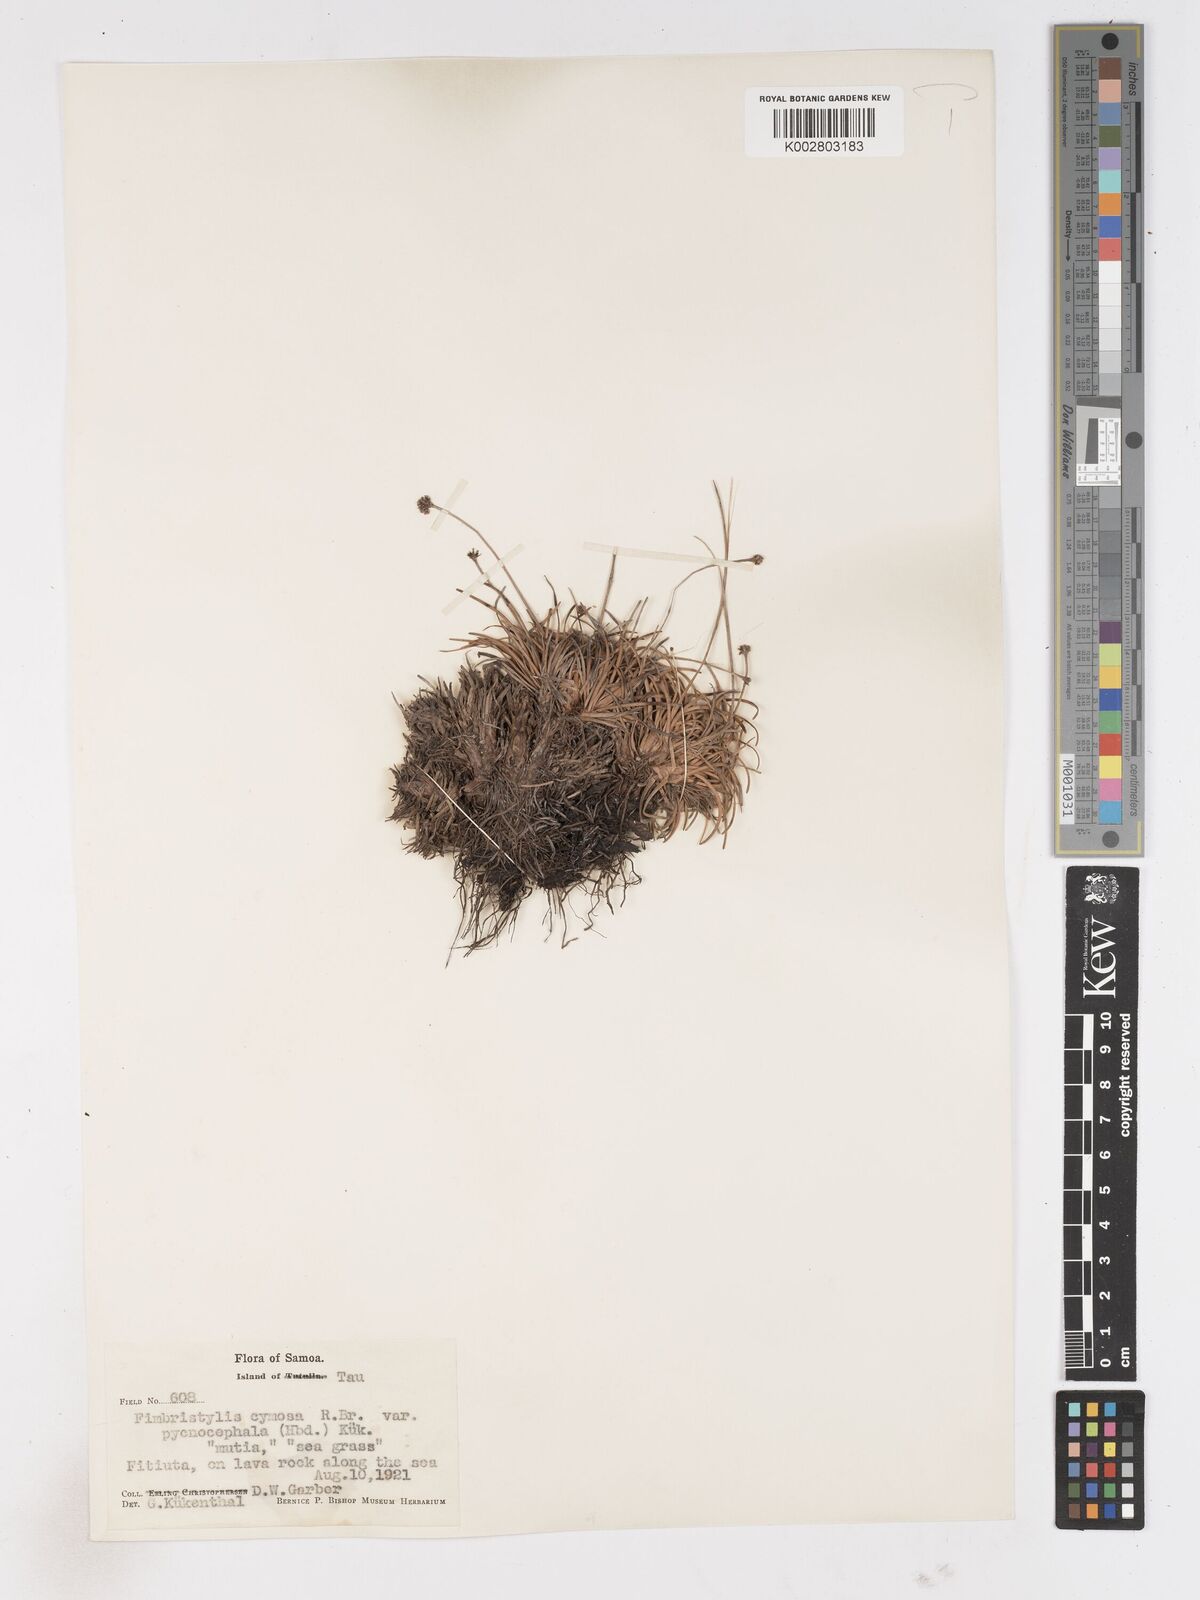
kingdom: Plantae
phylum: Tracheophyta
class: Liliopsida
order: Poales
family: Cyperaceae
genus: Fimbristylis
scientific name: Fimbristylis cymosa
